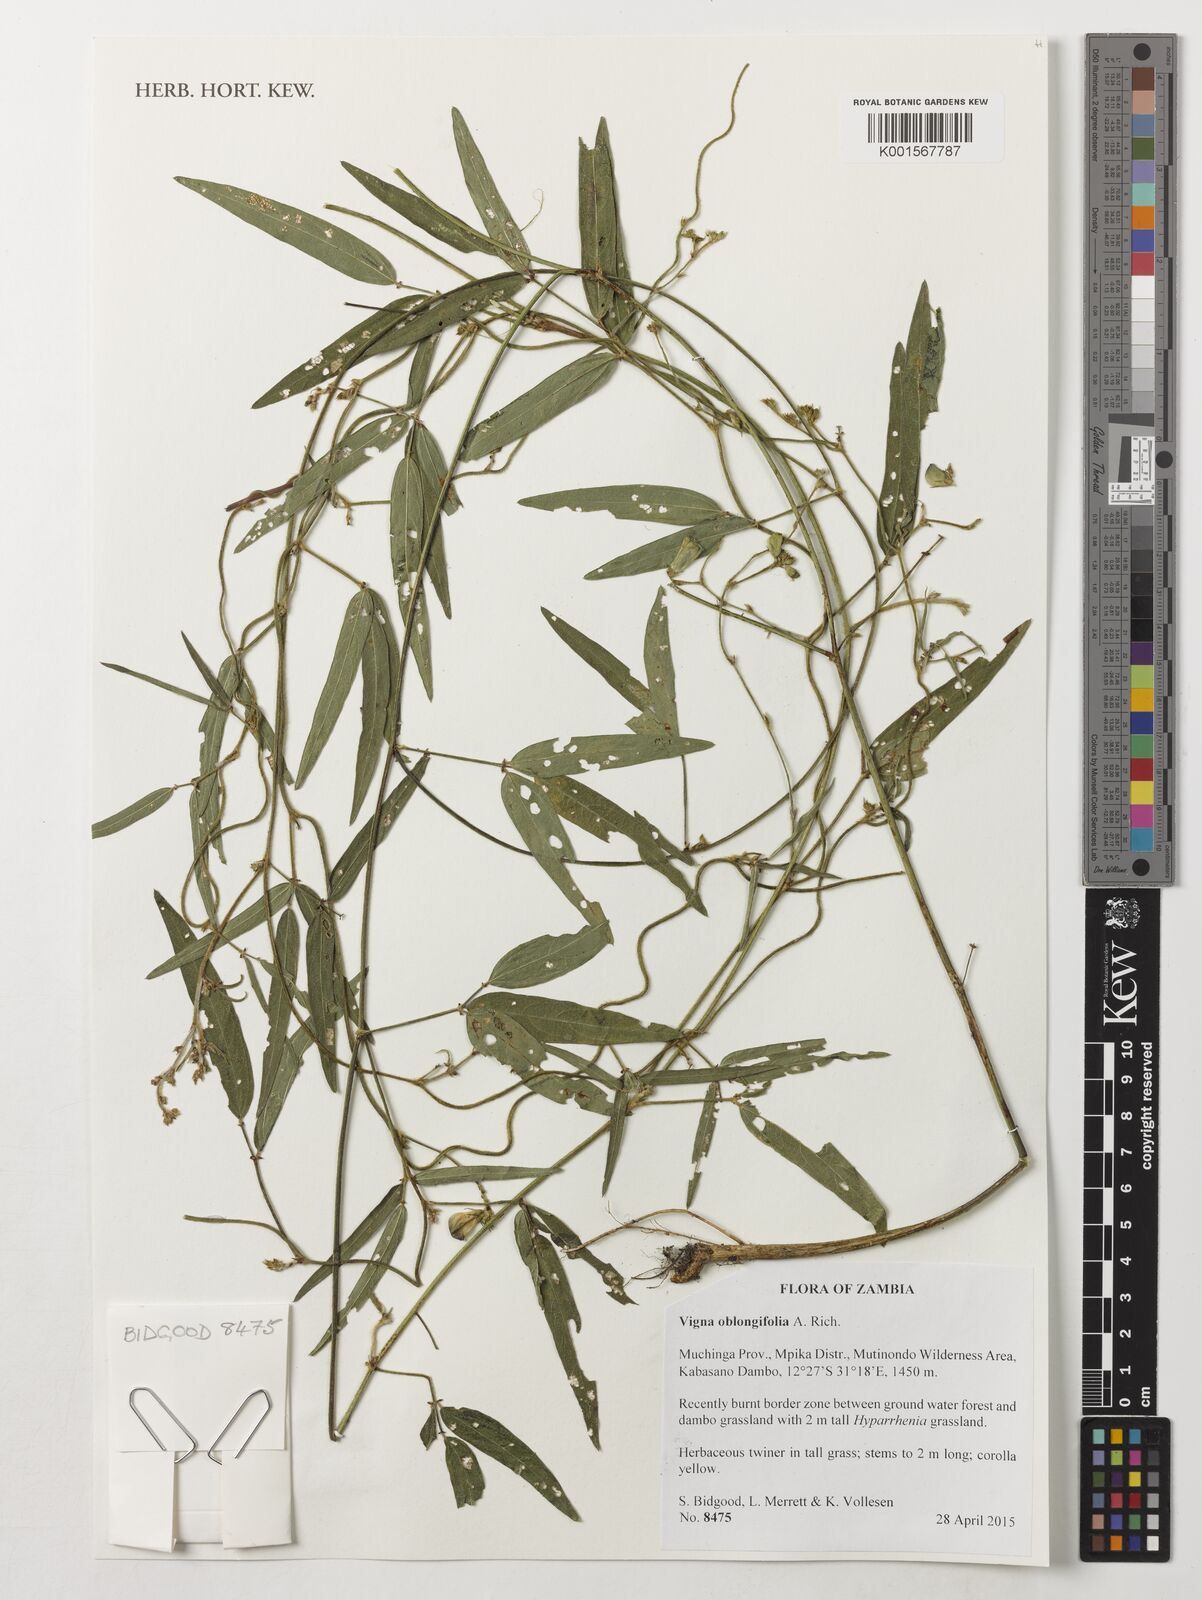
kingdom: Plantae
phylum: Tracheophyta
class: Magnoliopsida
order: Fabales
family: Fabaceae
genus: Vigna
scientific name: Vigna oblongifolia
